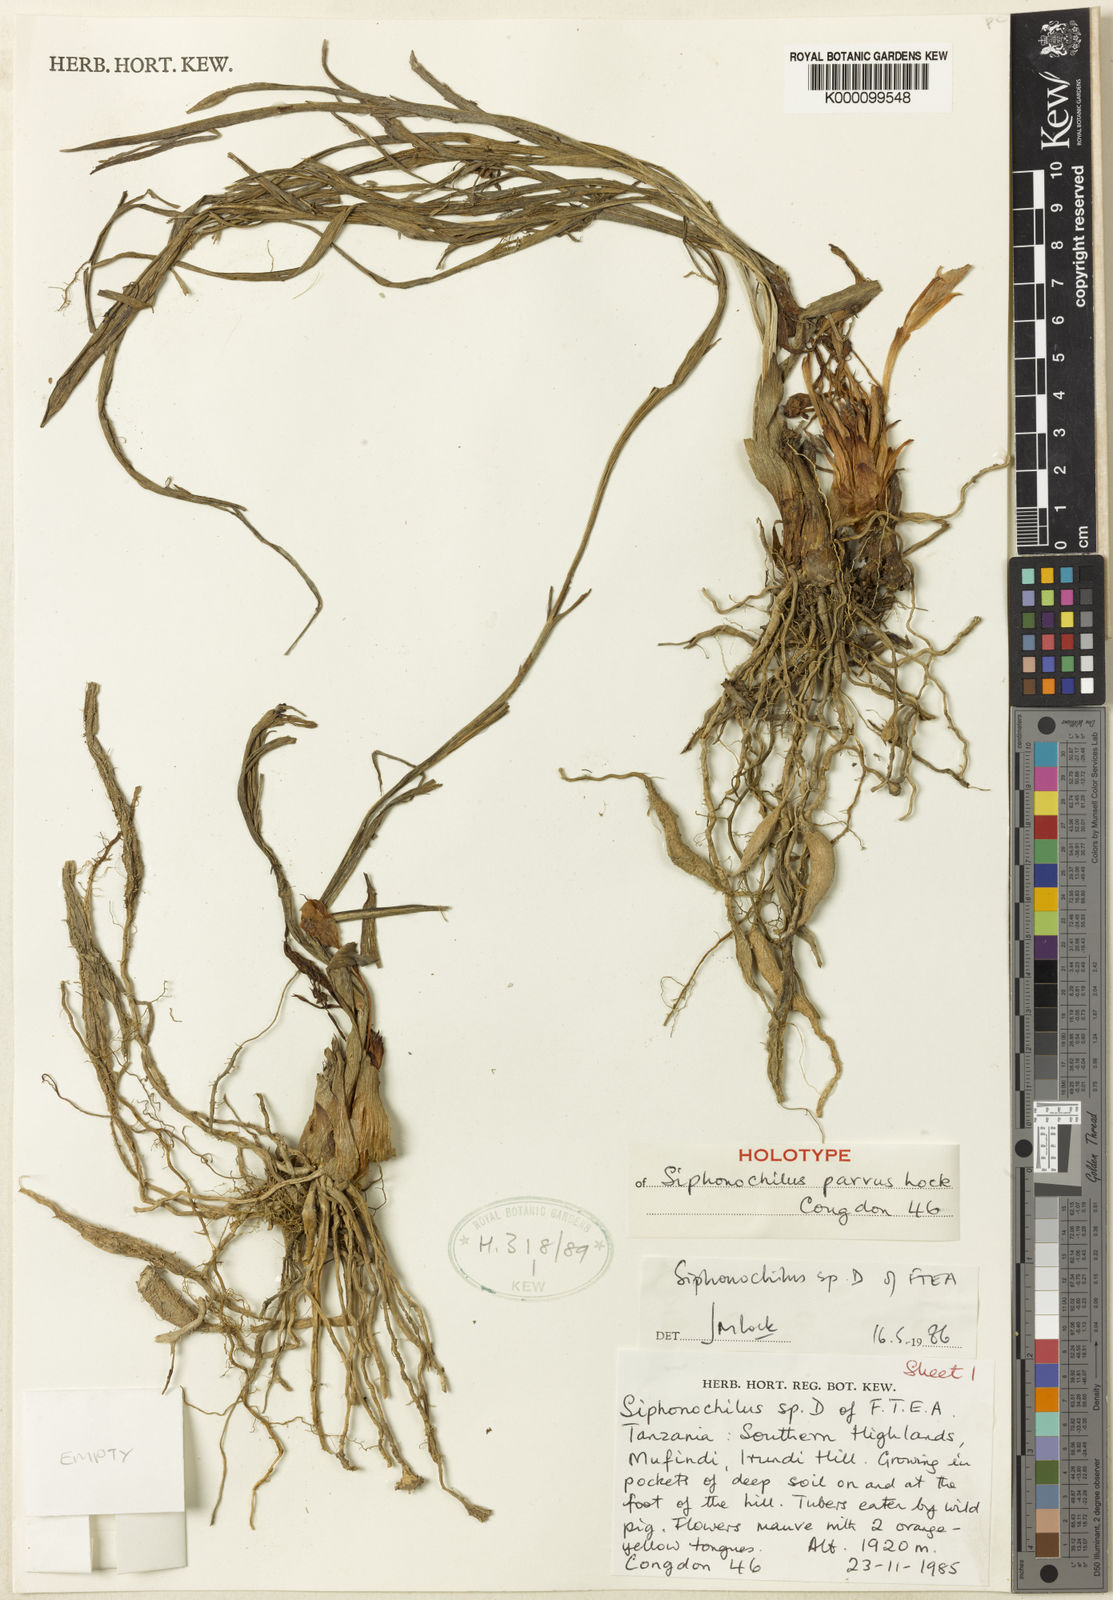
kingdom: Plantae
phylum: Tracheophyta
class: Liliopsida
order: Zingiberales
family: Zingiberaceae
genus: Siphonochilus
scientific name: Siphonochilus parvus
